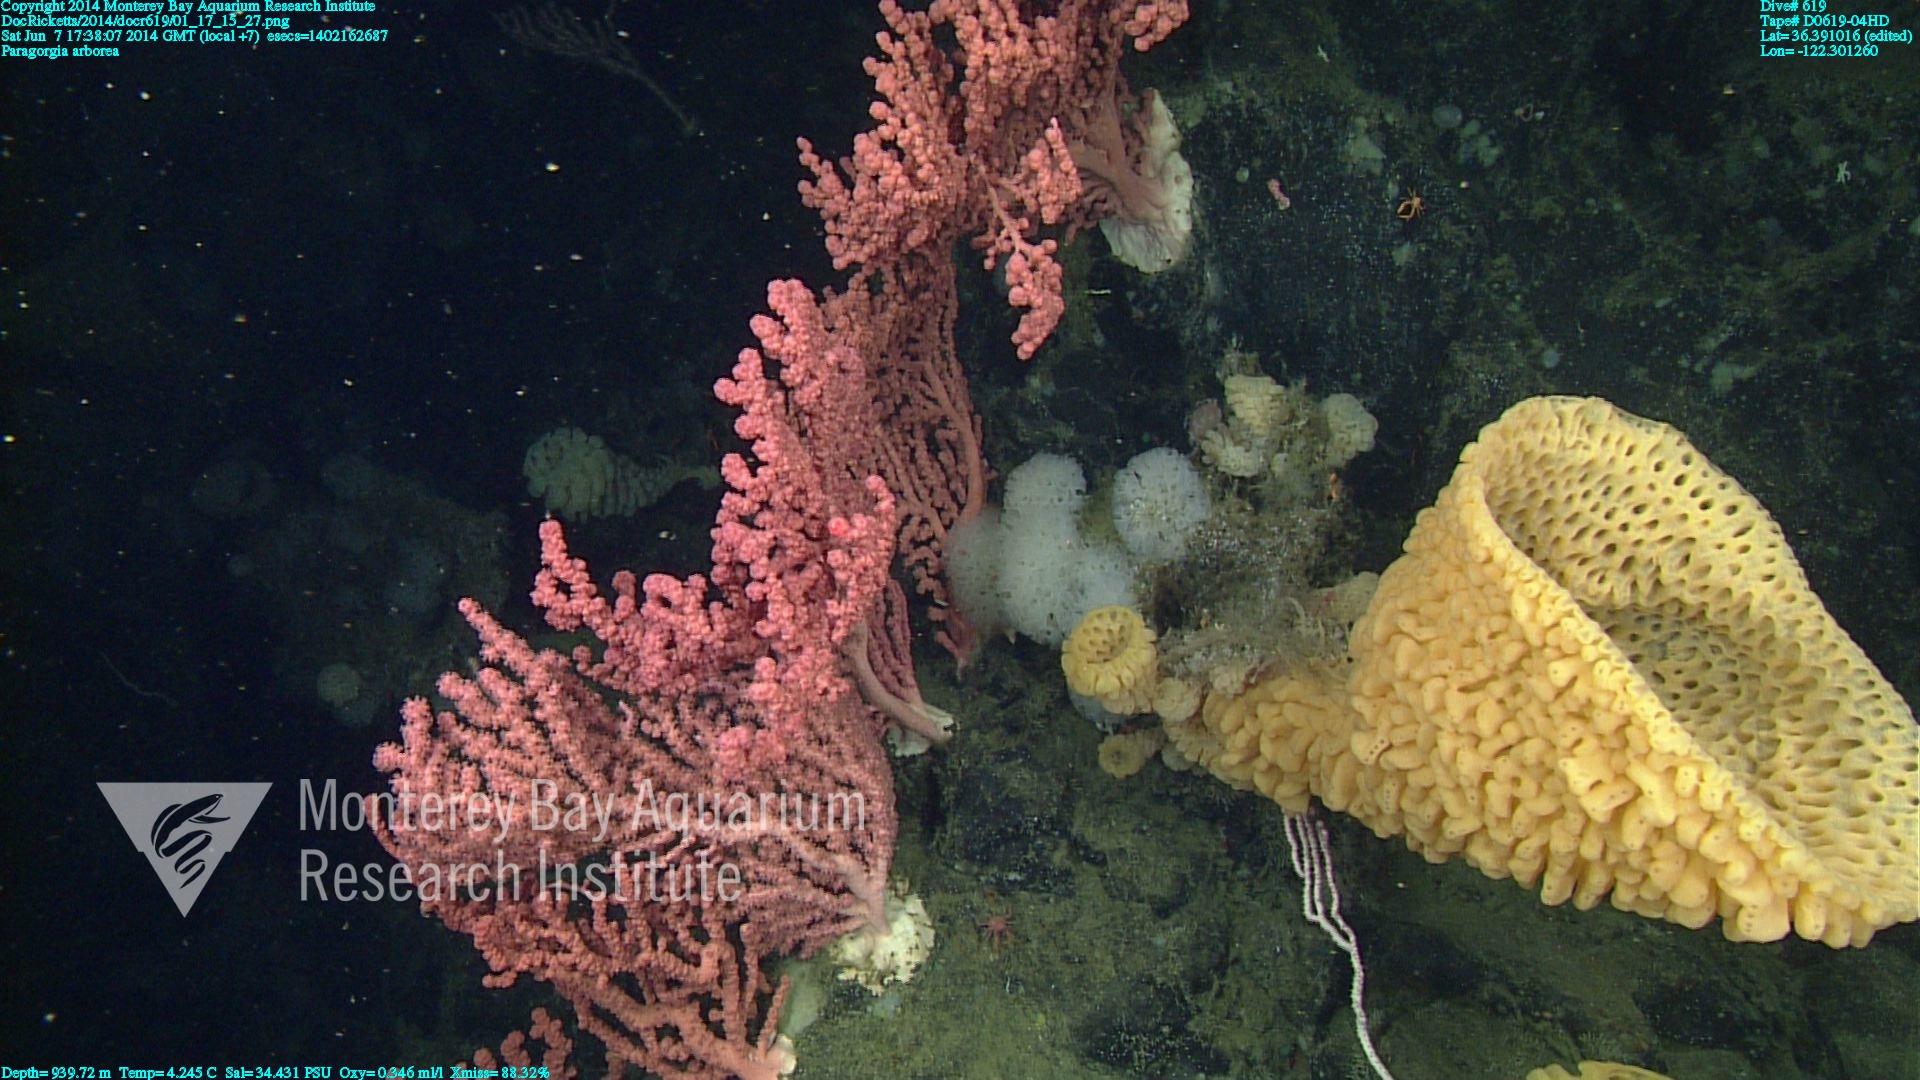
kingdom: Animalia
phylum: Cnidaria
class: Anthozoa
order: Scleralcyonacea
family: Coralliidae
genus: Paragorgia
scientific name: Paragorgia arborea
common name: Bubble gum coral
